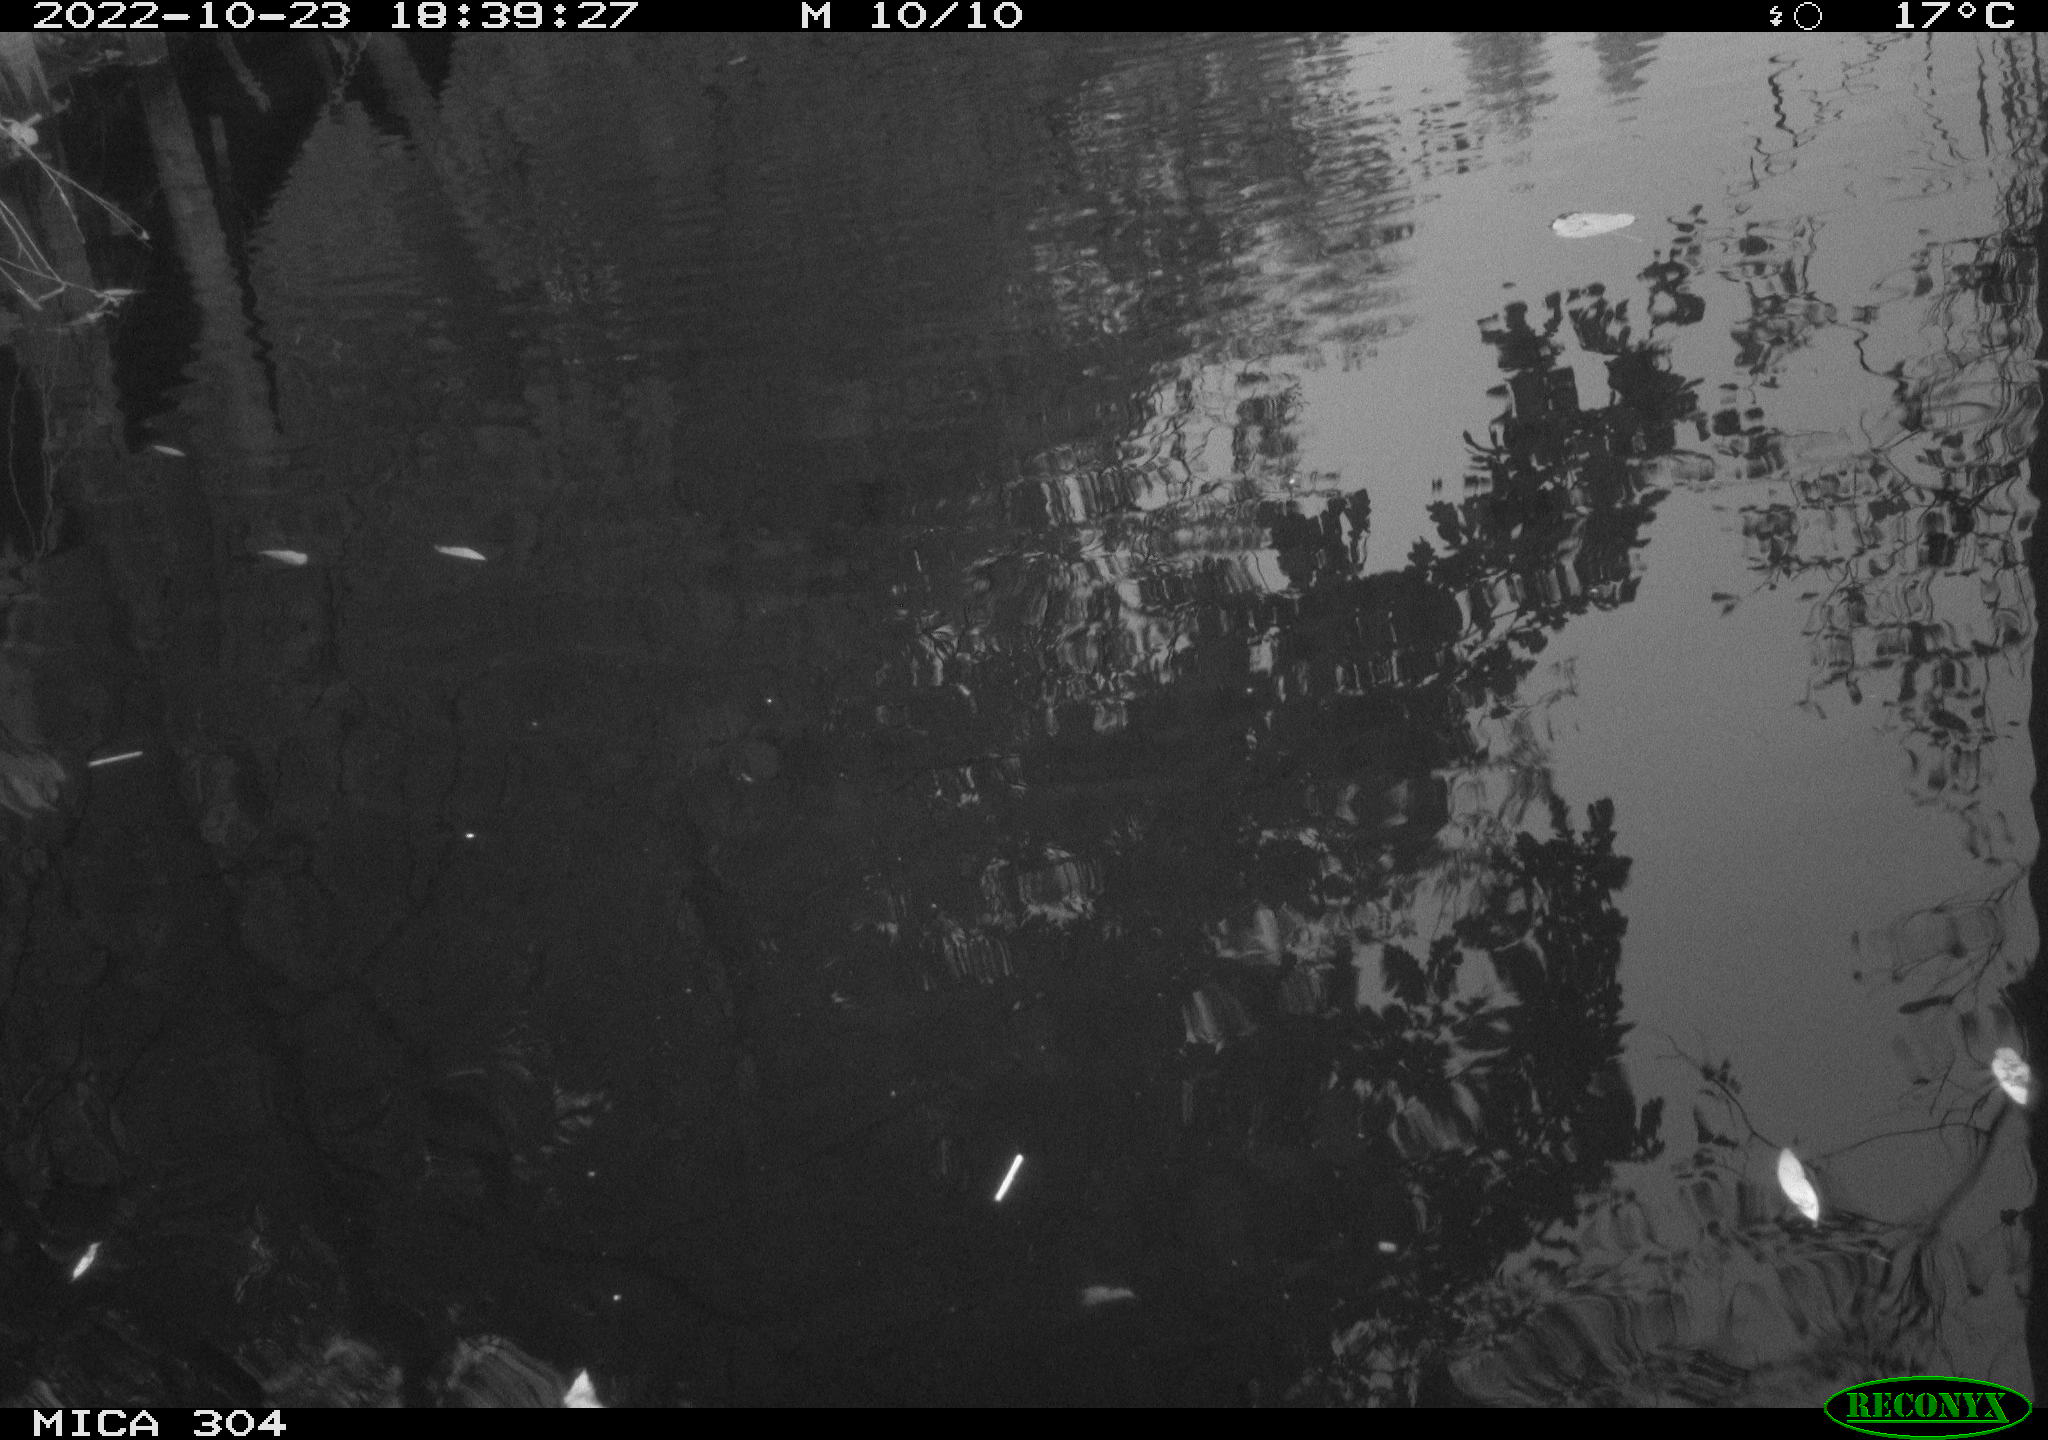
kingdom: Animalia
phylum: Chordata
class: Aves
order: Gruiformes
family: Rallidae
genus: Gallinula
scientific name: Gallinula chloropus
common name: Common moorhen
